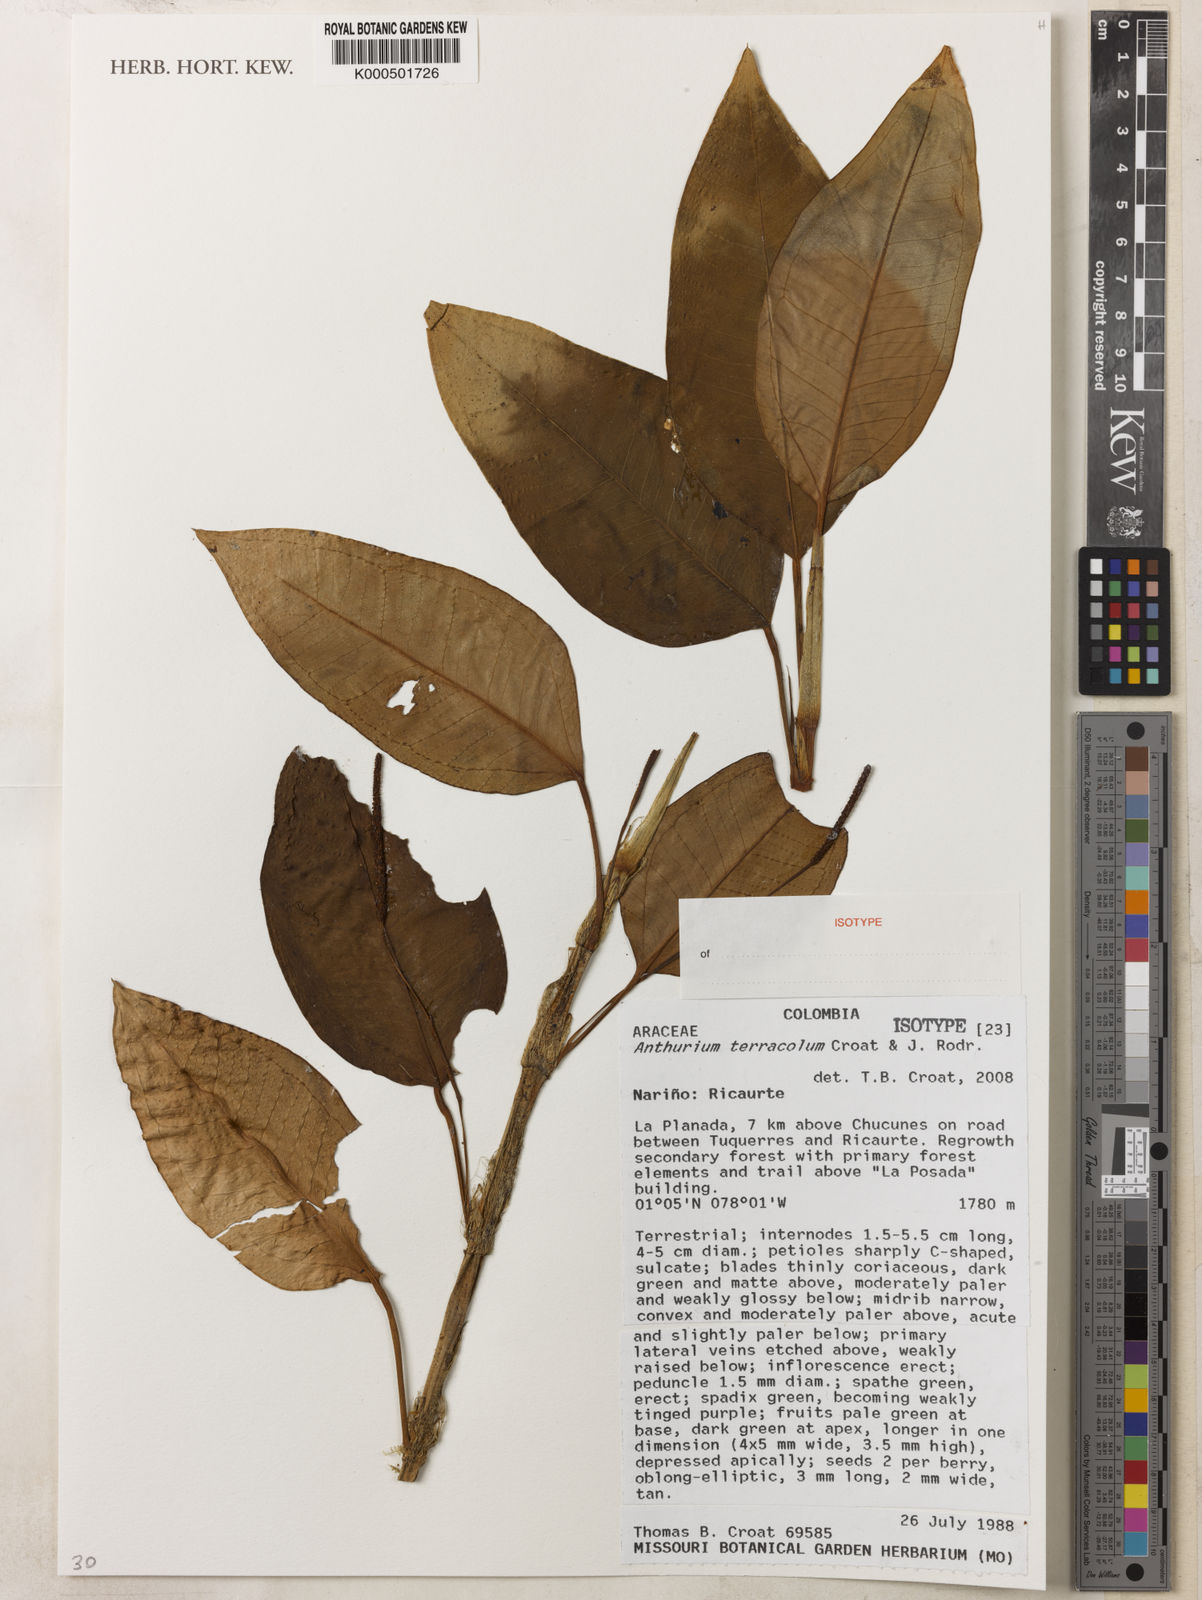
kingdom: Plantae
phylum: Tracheophyta
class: Liliopsida
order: Alismatales
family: Araceae
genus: Anthurium
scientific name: Anthurium terracola
